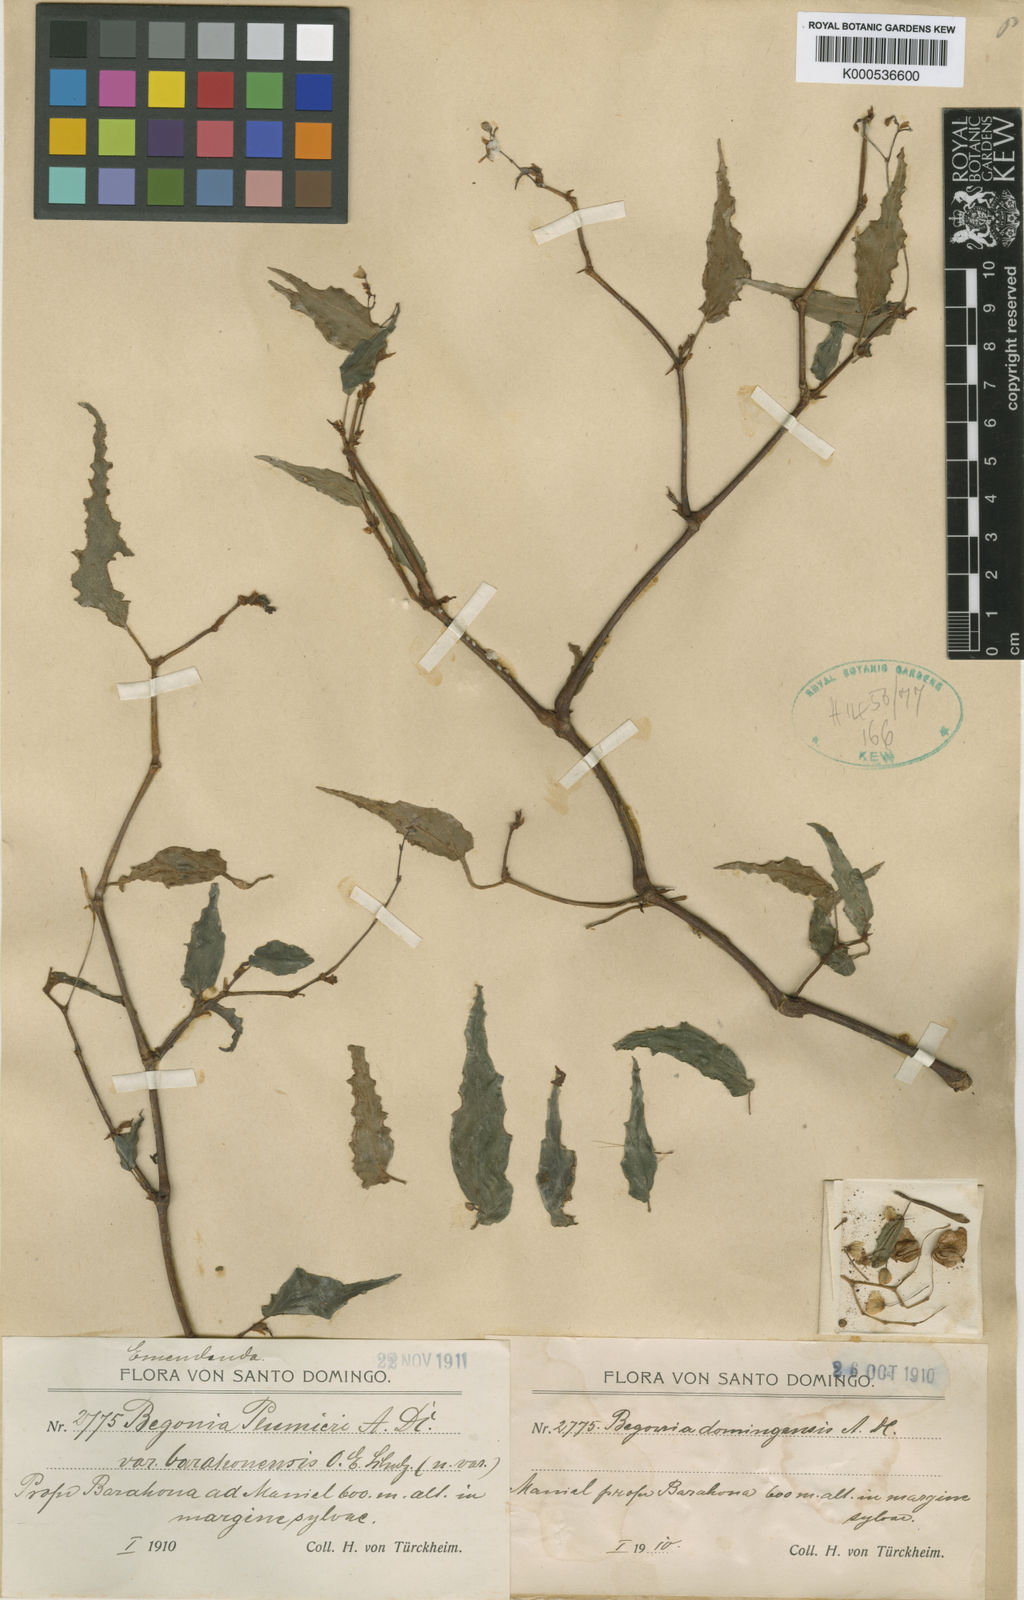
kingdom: Plantae
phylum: Tracheophyta
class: Magnoliopsida
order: Cucurbitales
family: Begoniaceae
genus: Begonia
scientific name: Begonia plumieri
